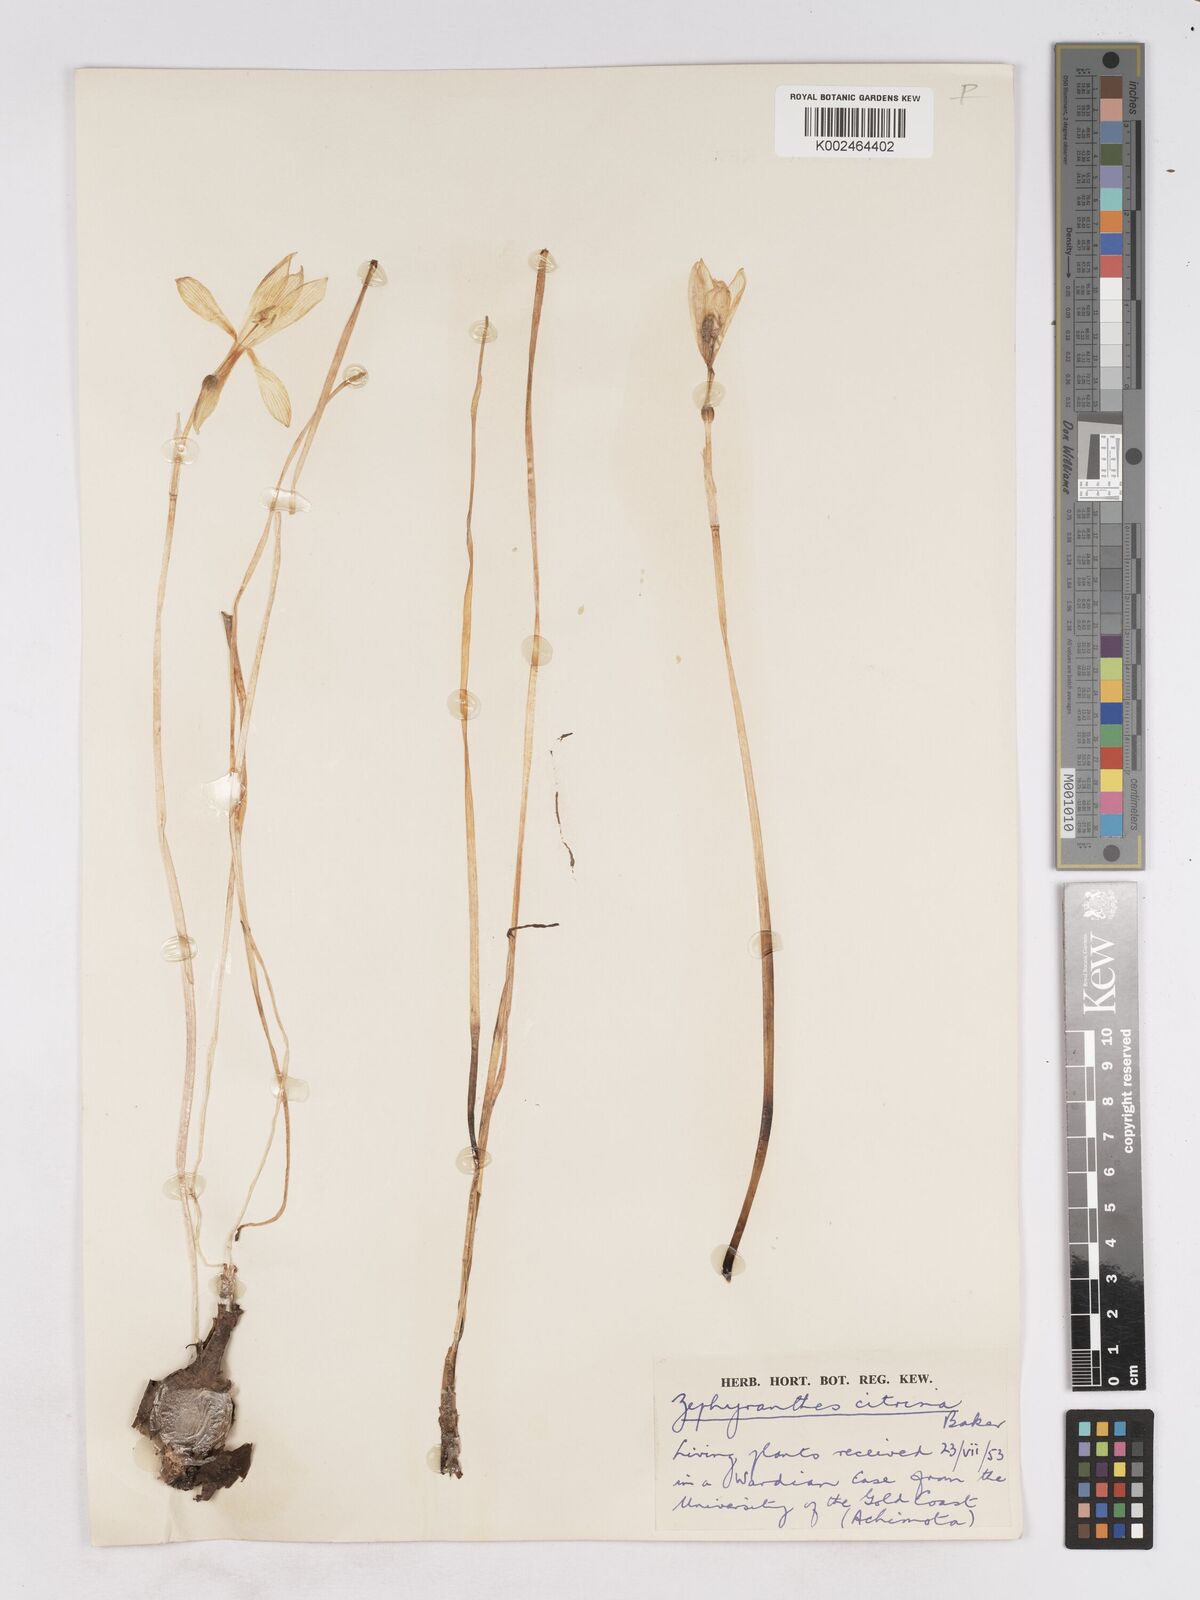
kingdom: Plantae
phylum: Tracheophyta
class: Liliopsida
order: Asparagales
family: Amaryllidaceae
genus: Zephyranthes
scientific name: Zephyranthes citrina
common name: Citron zephyrlily
